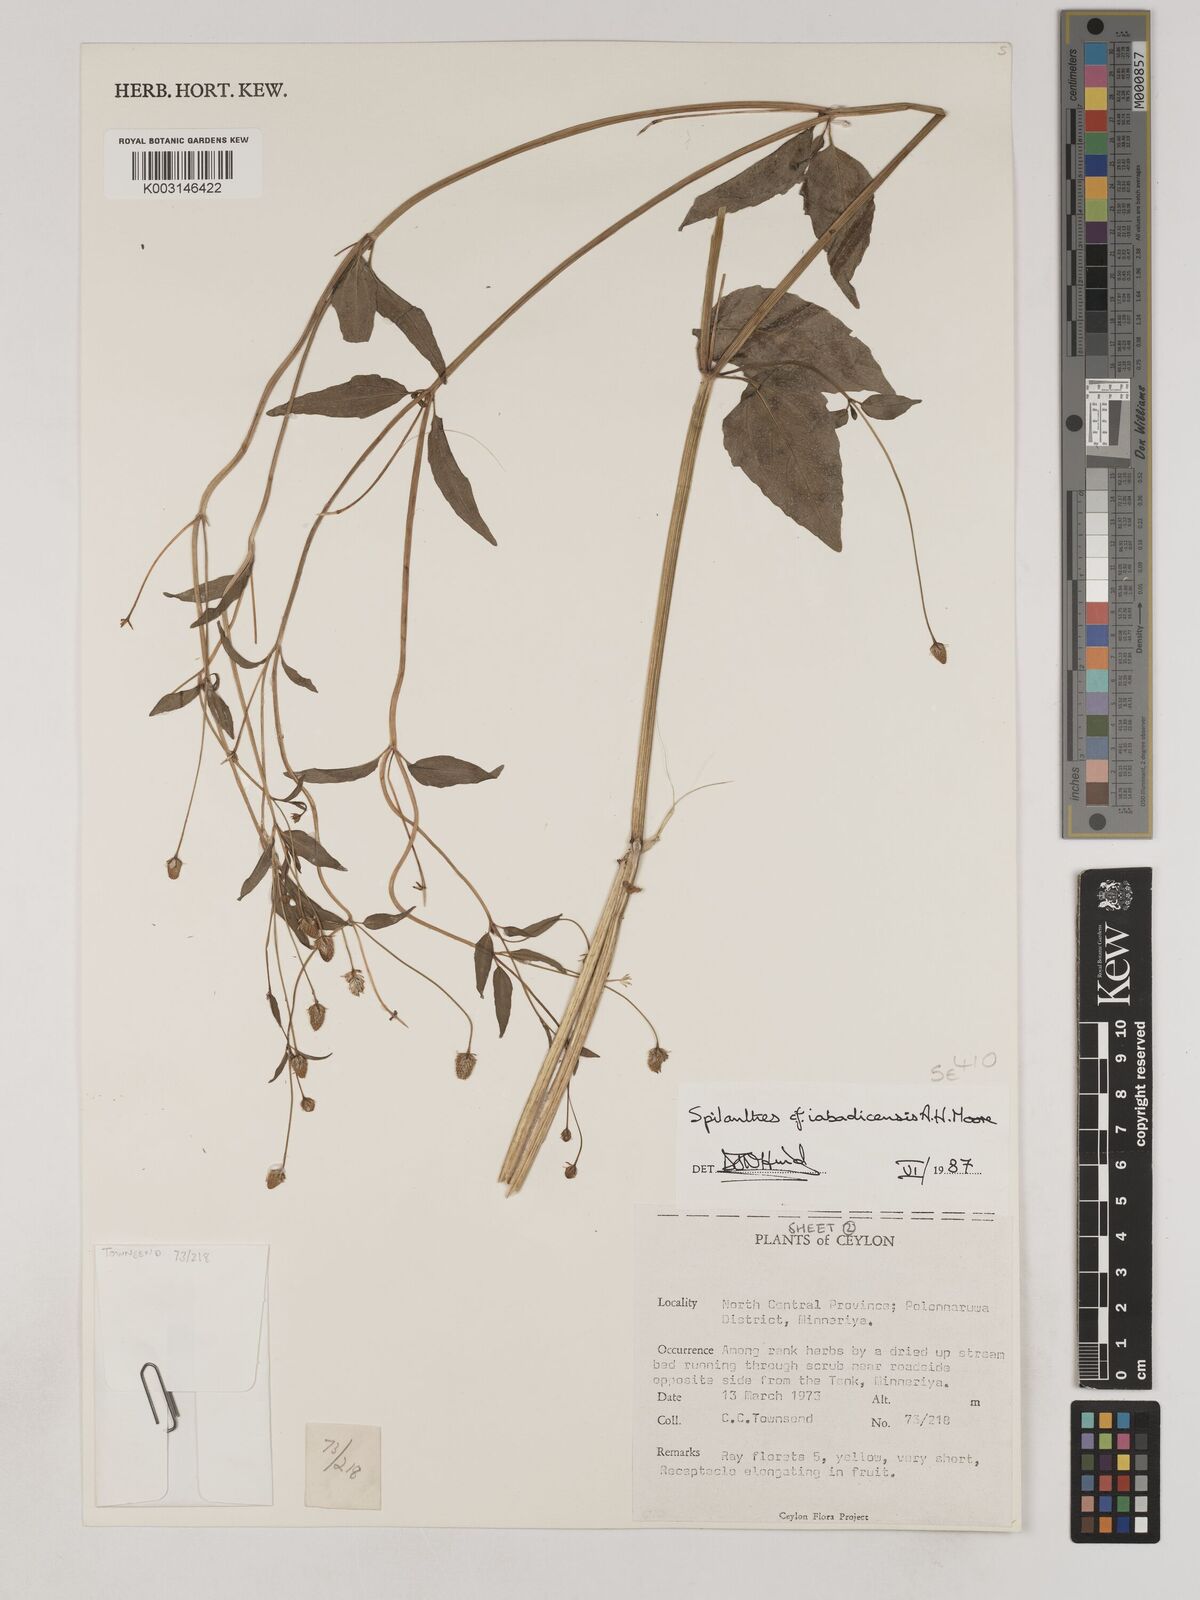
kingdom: Plantae
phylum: Tracheophyta
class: Magnoliopsida
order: Asterales
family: Asteraceae
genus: Acmella
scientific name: Acmella uliginosa
